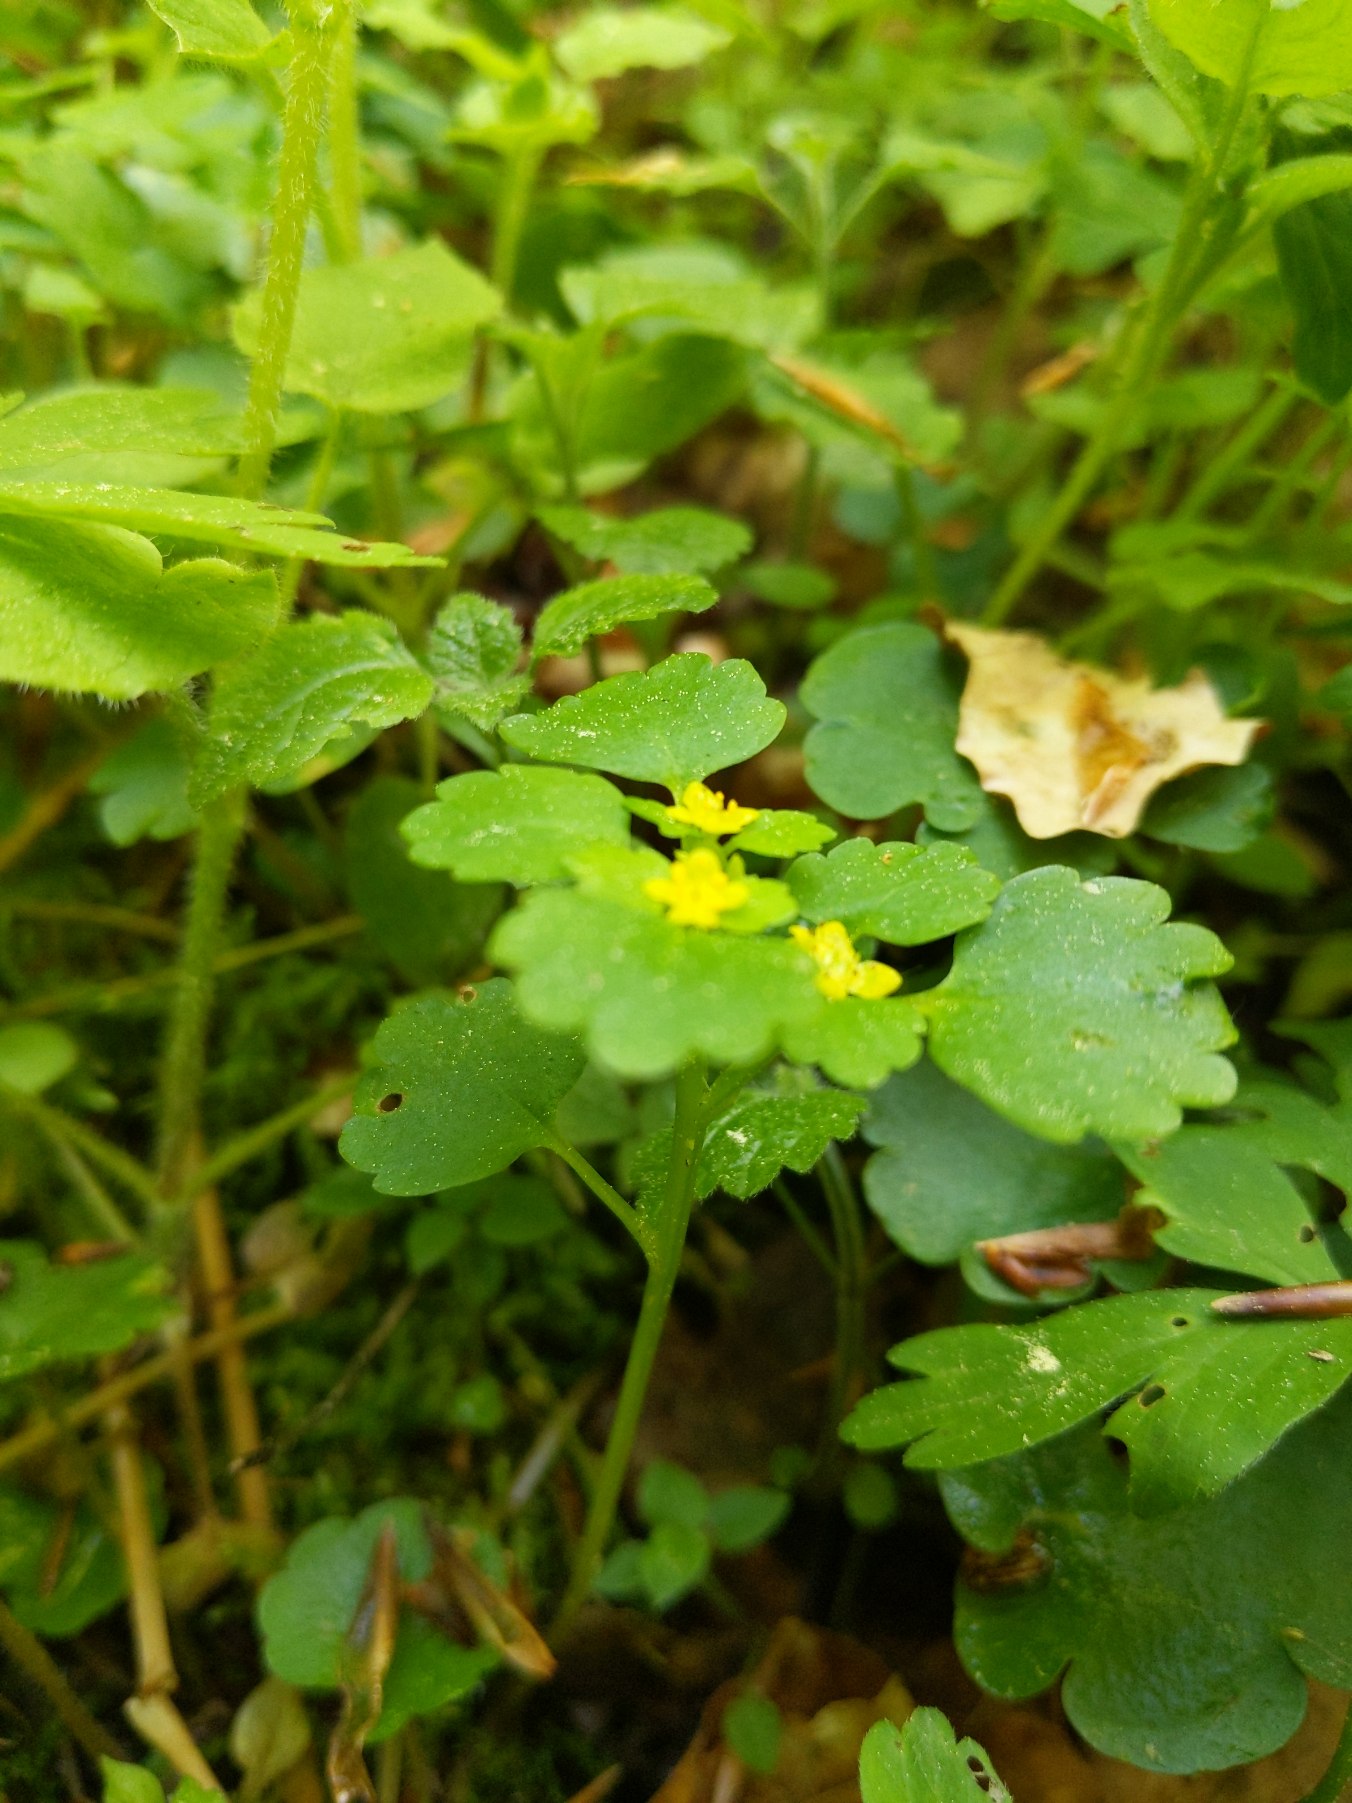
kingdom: Plantae
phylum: Tracheophyta
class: Magnoliopsida
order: Saxifragales
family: Saxifragaceae
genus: Chrysosplenium
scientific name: Chrysosplenium alternifolium
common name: Almindelig milturt
